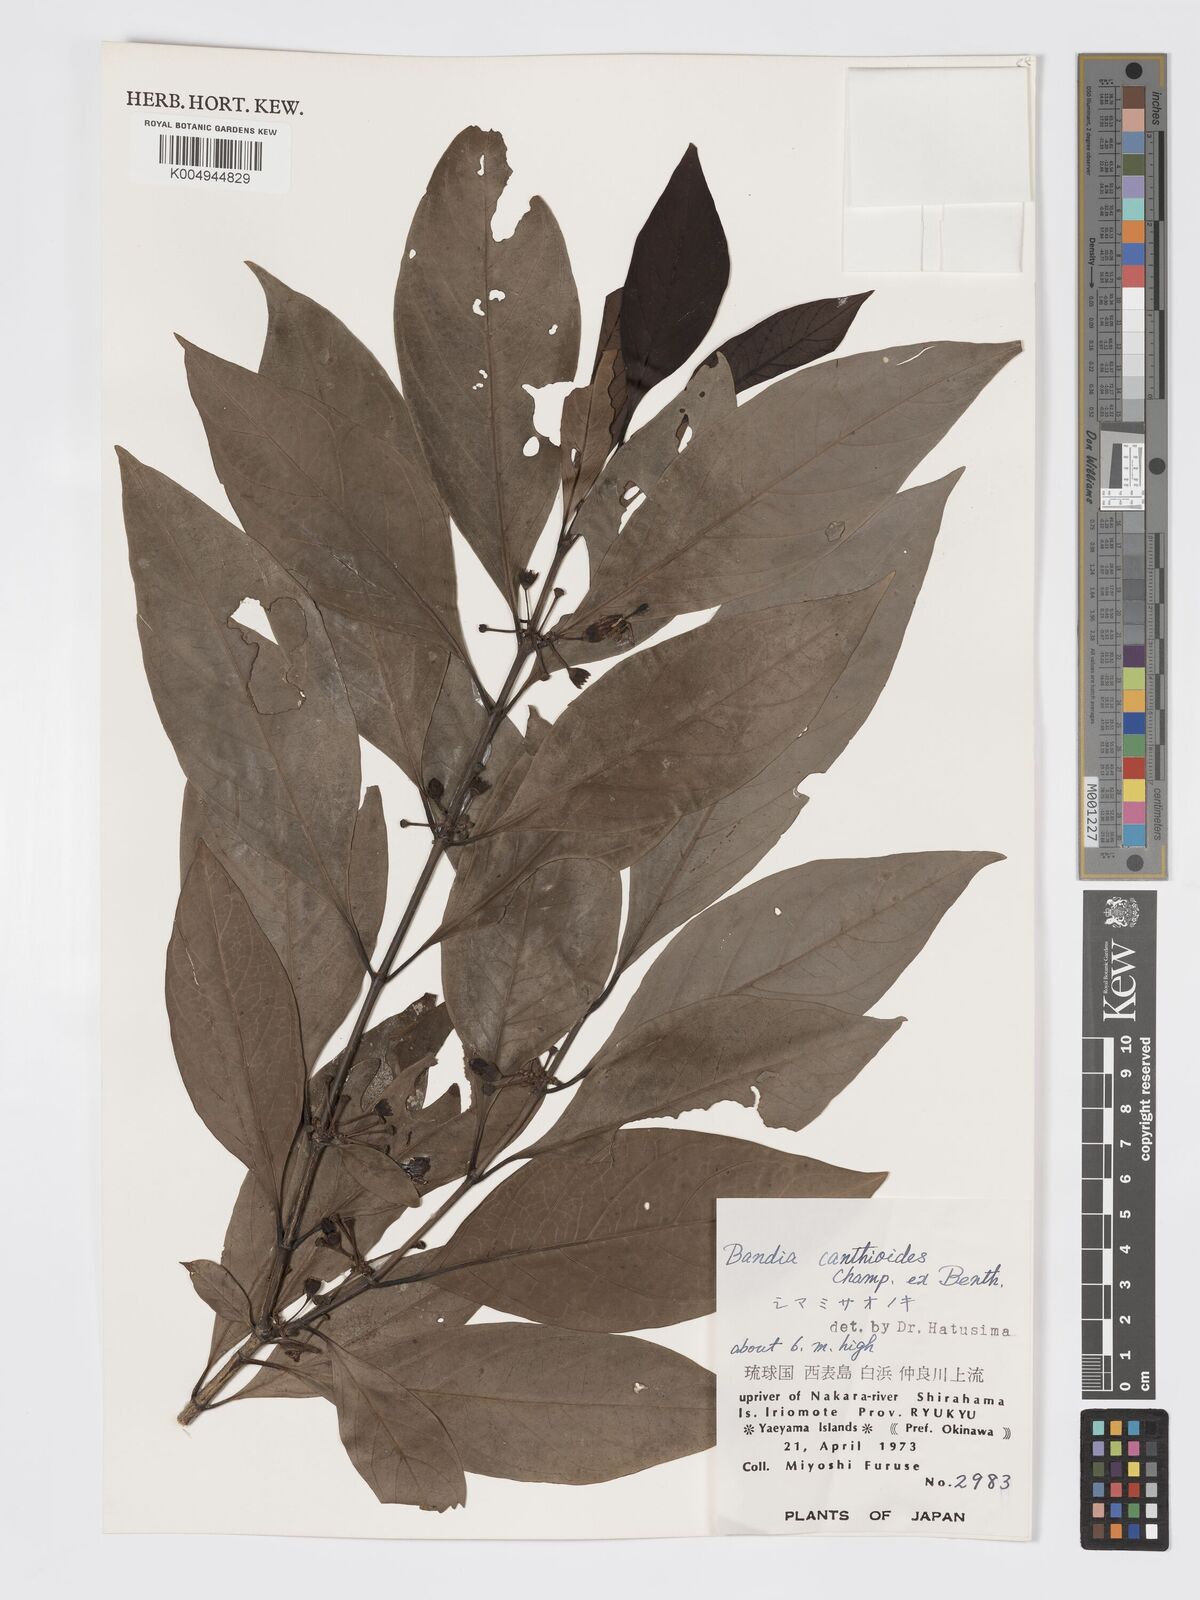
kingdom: Plantae
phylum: Tracheophyta
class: Magnoliopsida
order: Gentianales
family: Rubiaceae
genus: Aidia
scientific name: Aidia canthioides
